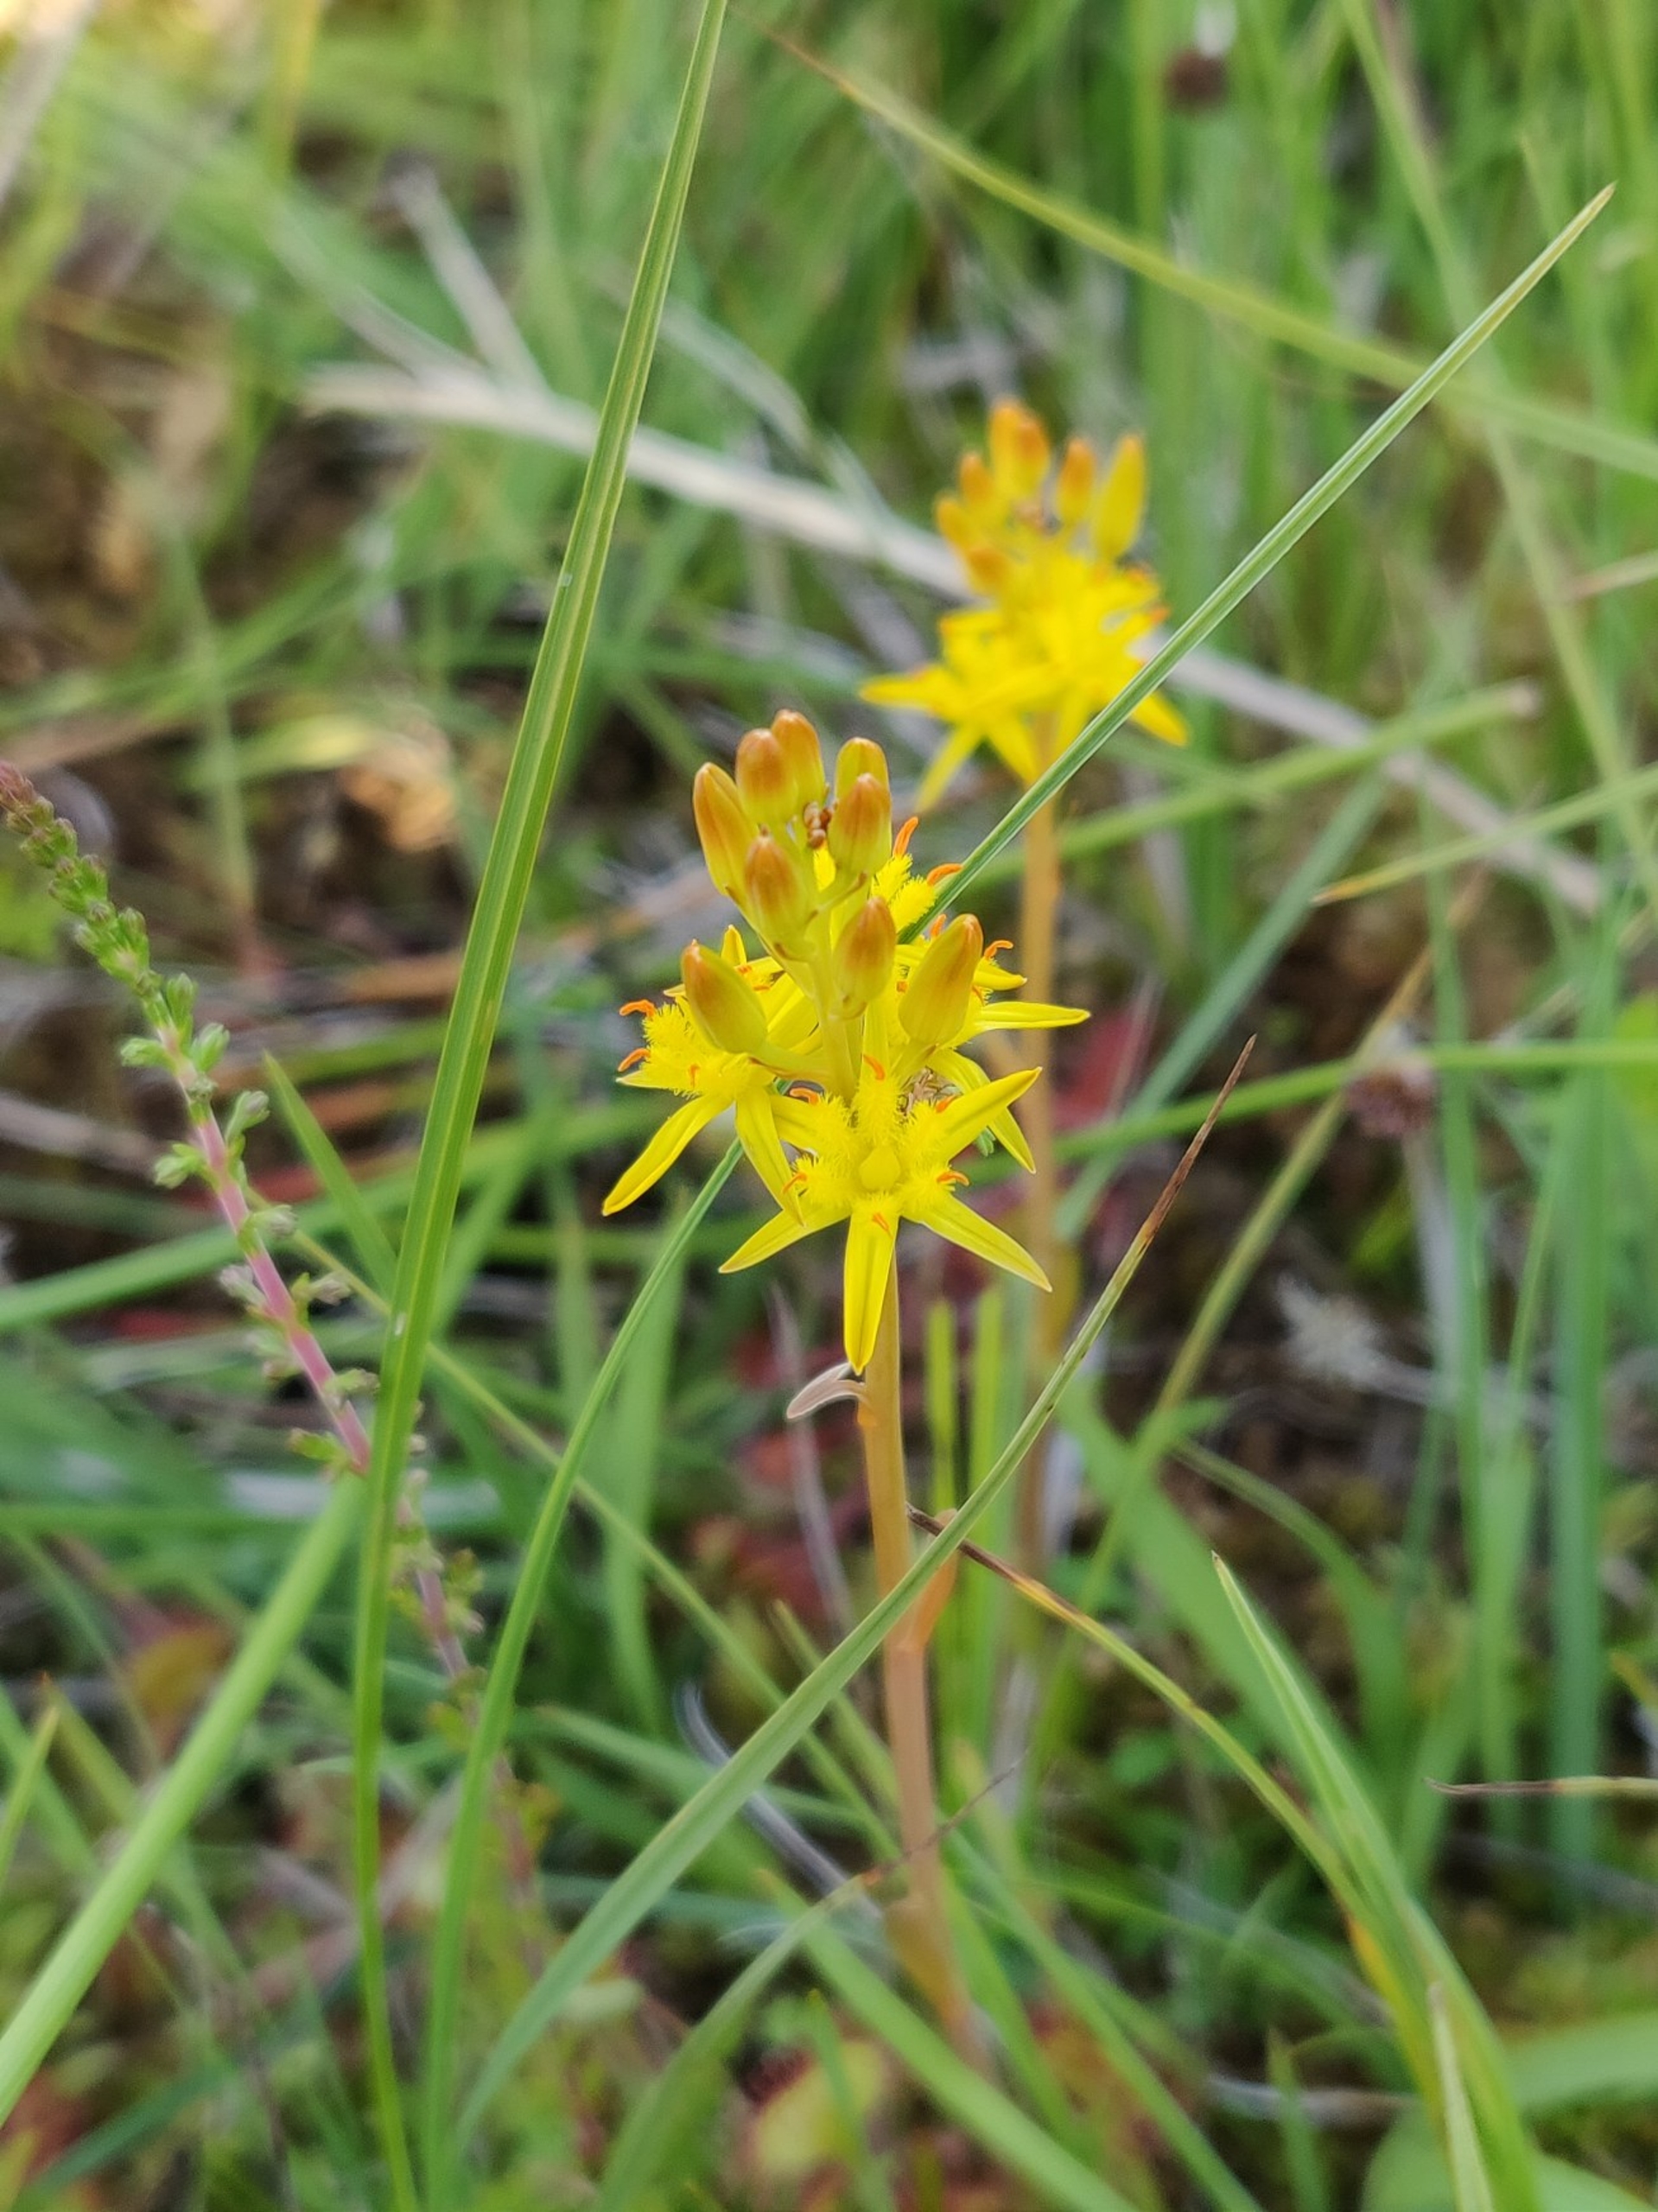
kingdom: Plantae
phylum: Tracheophyta
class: Liliopsida
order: Dioscoreales
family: Nartheciaceae
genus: Narthecium
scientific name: Narthecium ossifragum
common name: Benbræk
